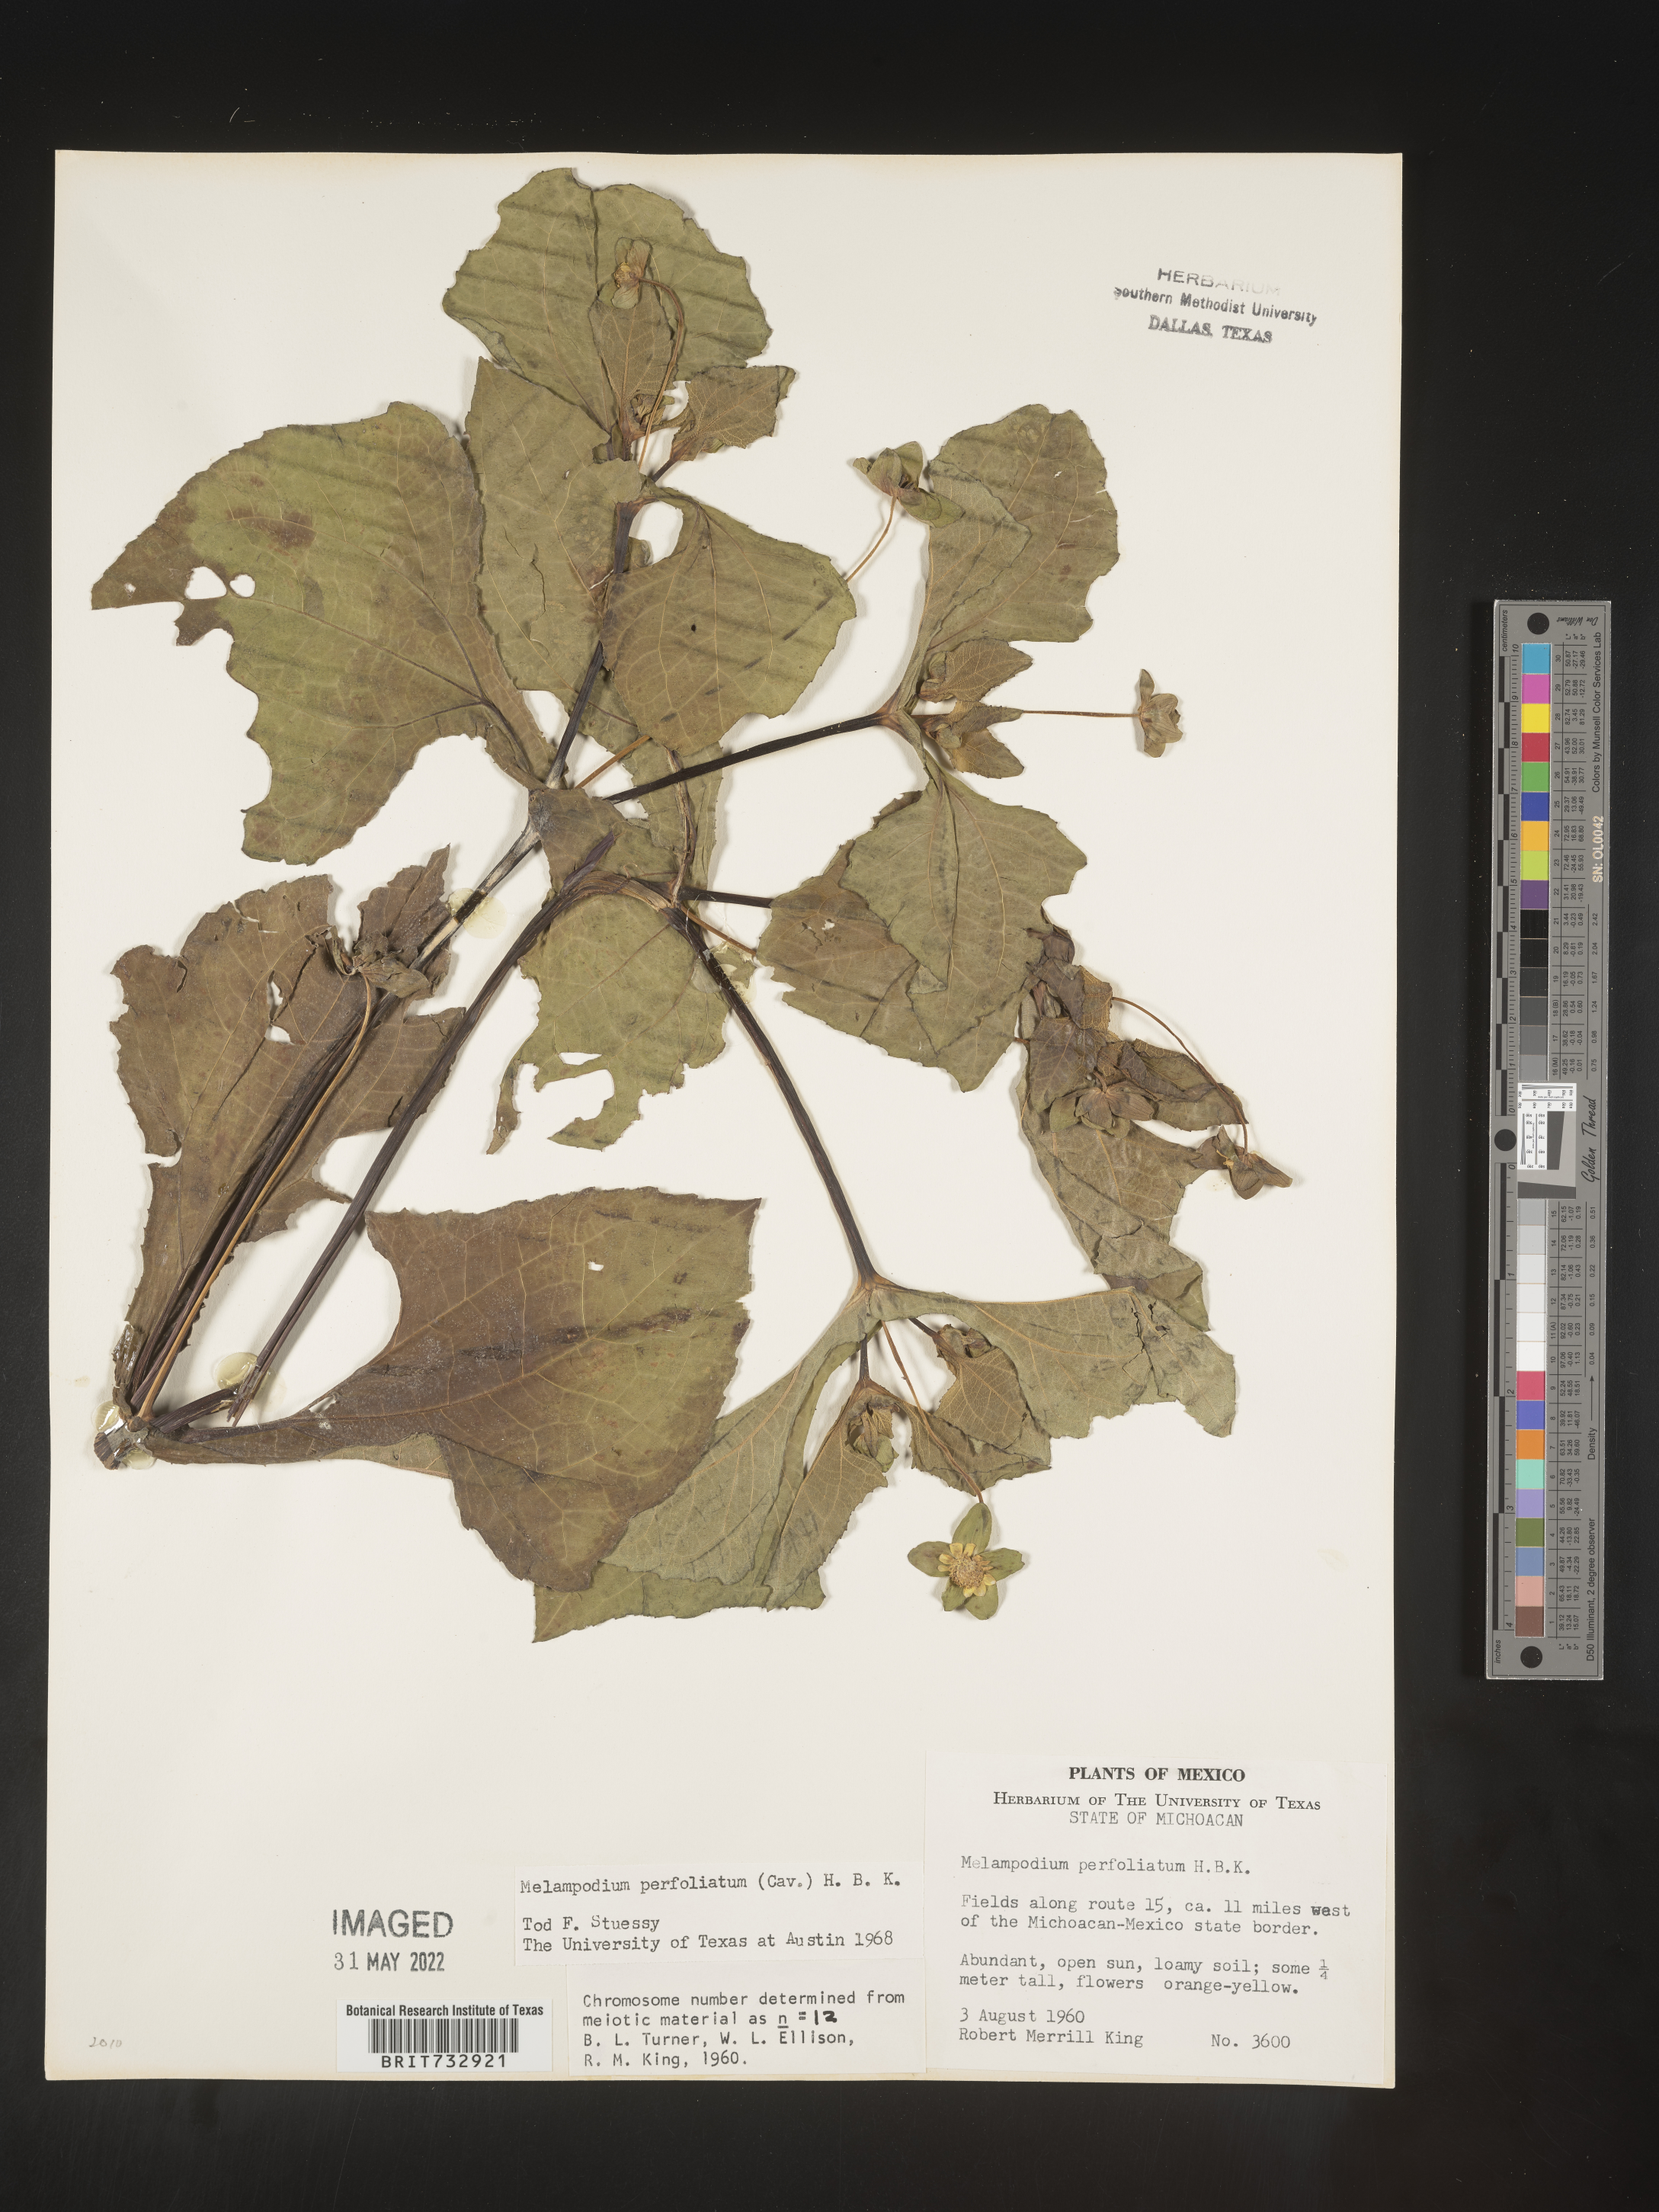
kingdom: Plantae
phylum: Tracheophyta
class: Magnoliopsida
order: Asterales
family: Asteraceae
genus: Melampodium
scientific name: Melampodium
